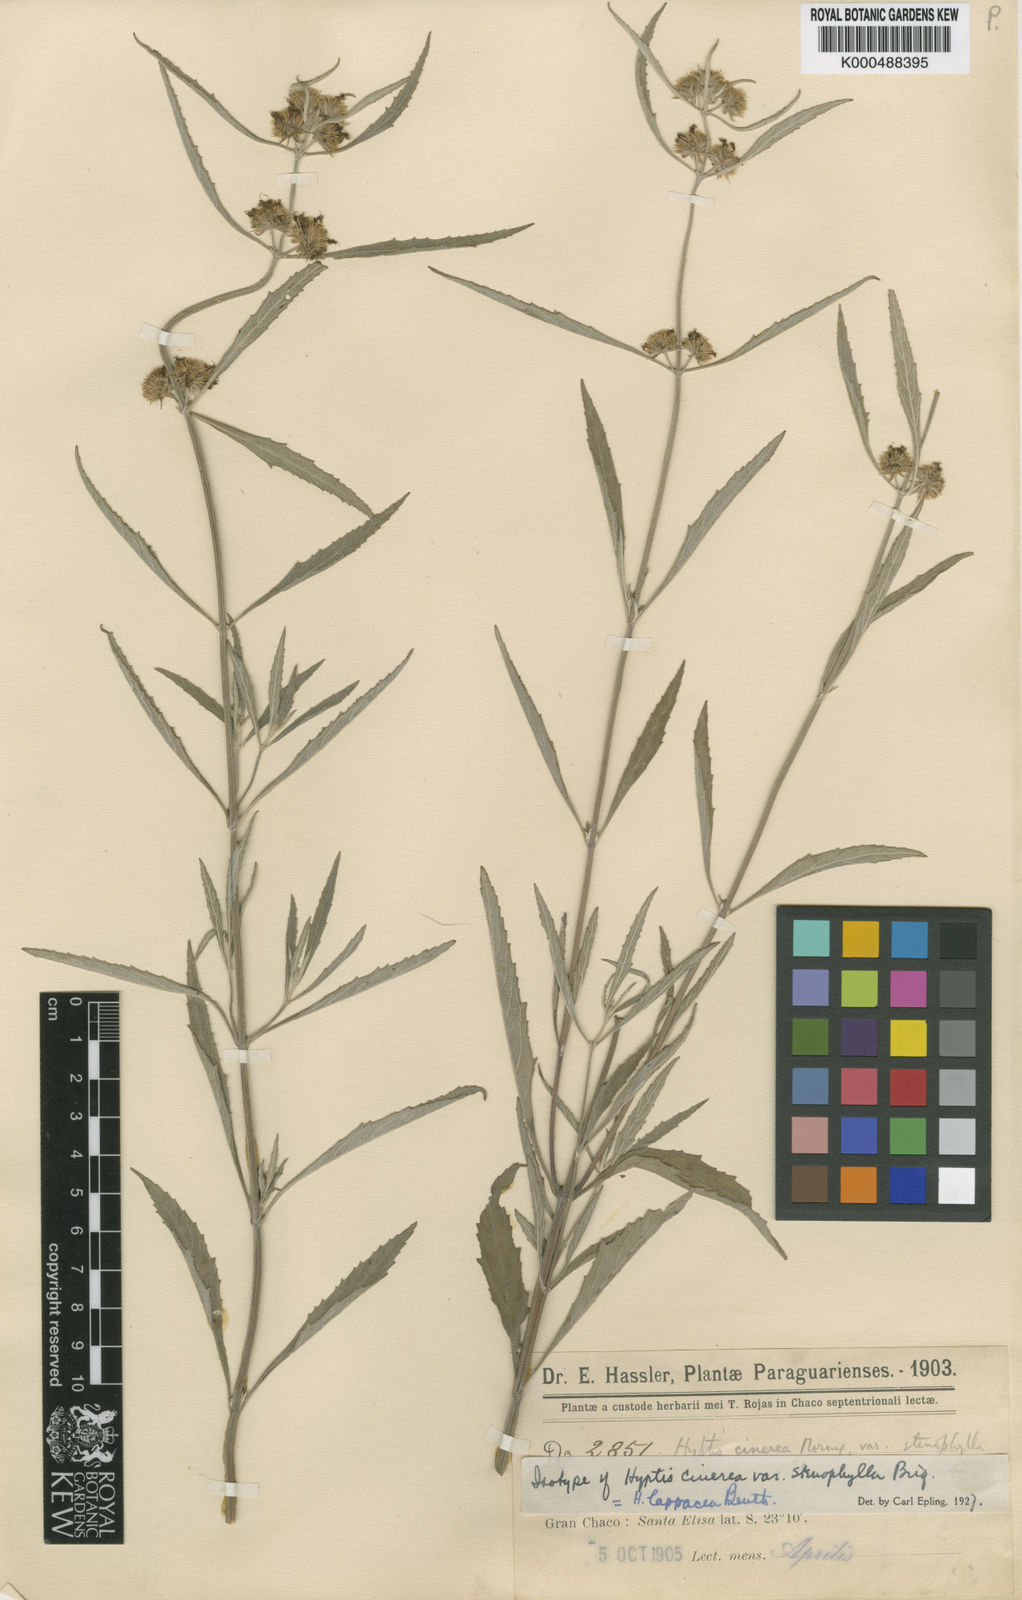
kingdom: Plantae
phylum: Tracheophyta
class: Magnoliopsida
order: Lamiales
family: Lamiaceae
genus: Hyptis
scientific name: Hyptis lappacea
